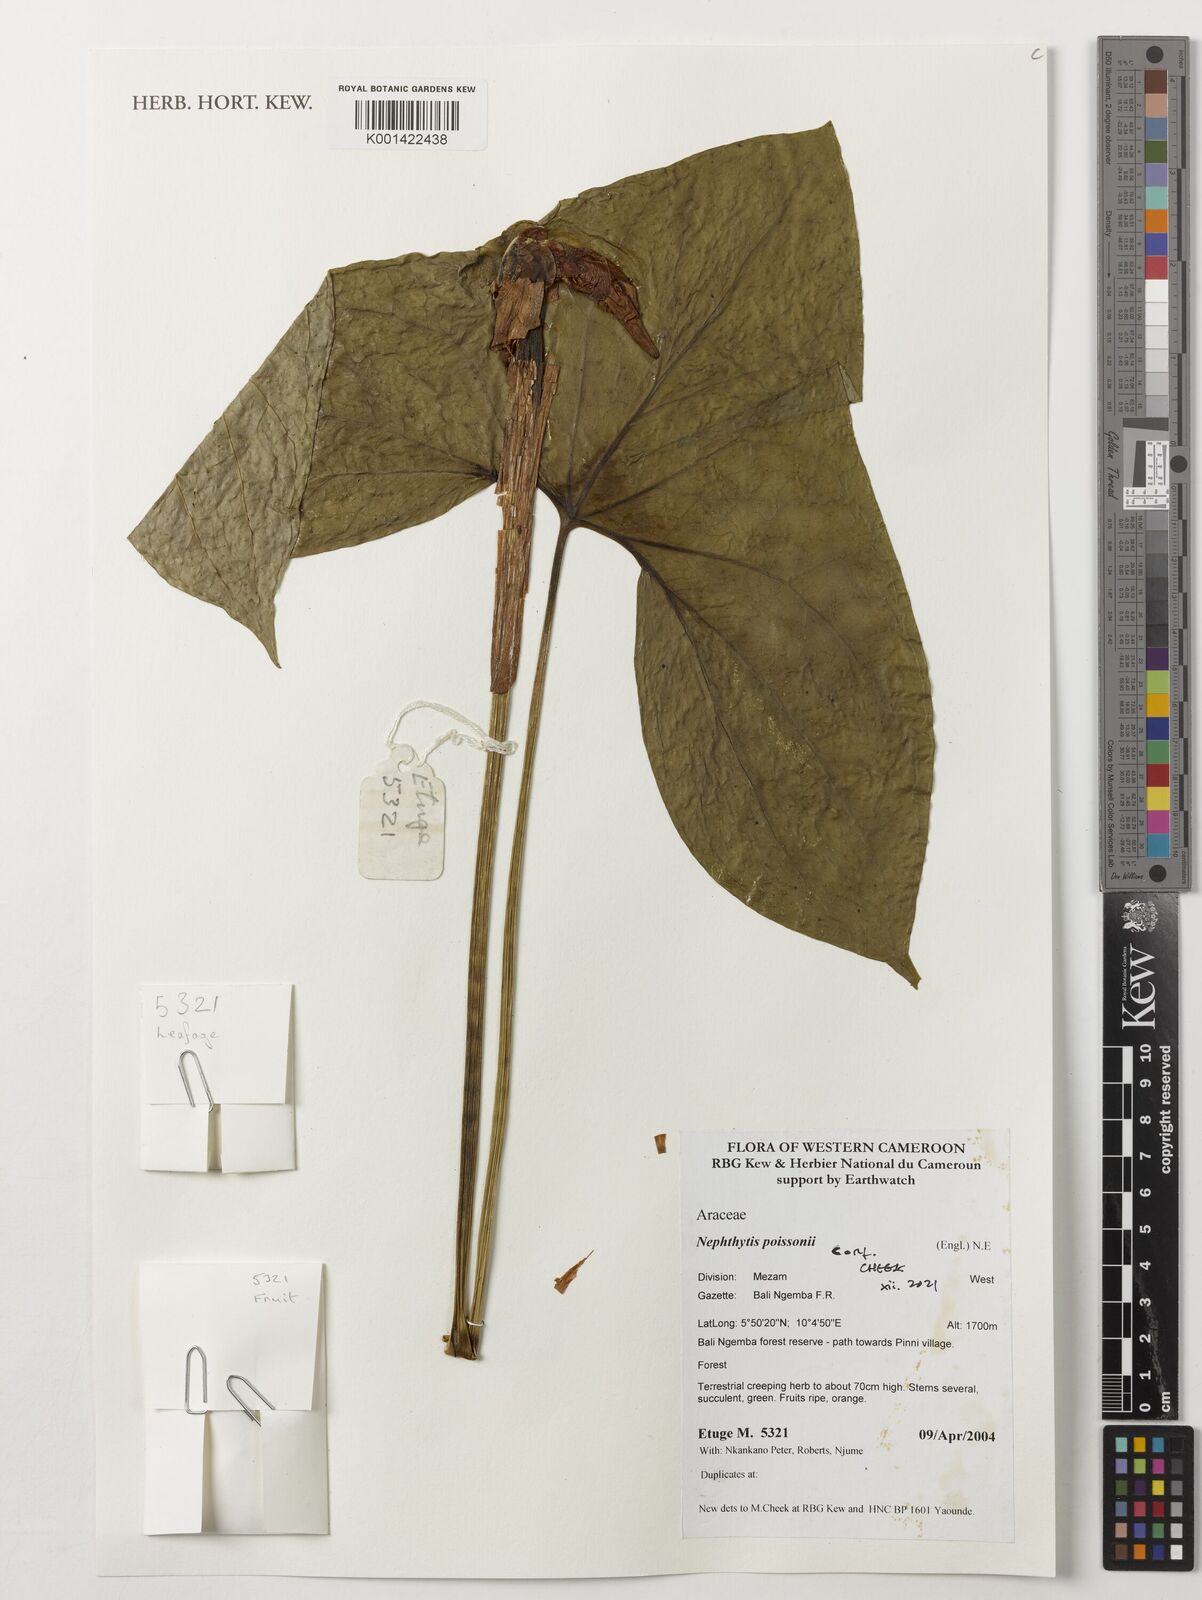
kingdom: Plantae
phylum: Tracheophyta
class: Liliopsida
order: Alismatales
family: Araceae
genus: Nephthytis
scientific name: Nephthytis poissonii
